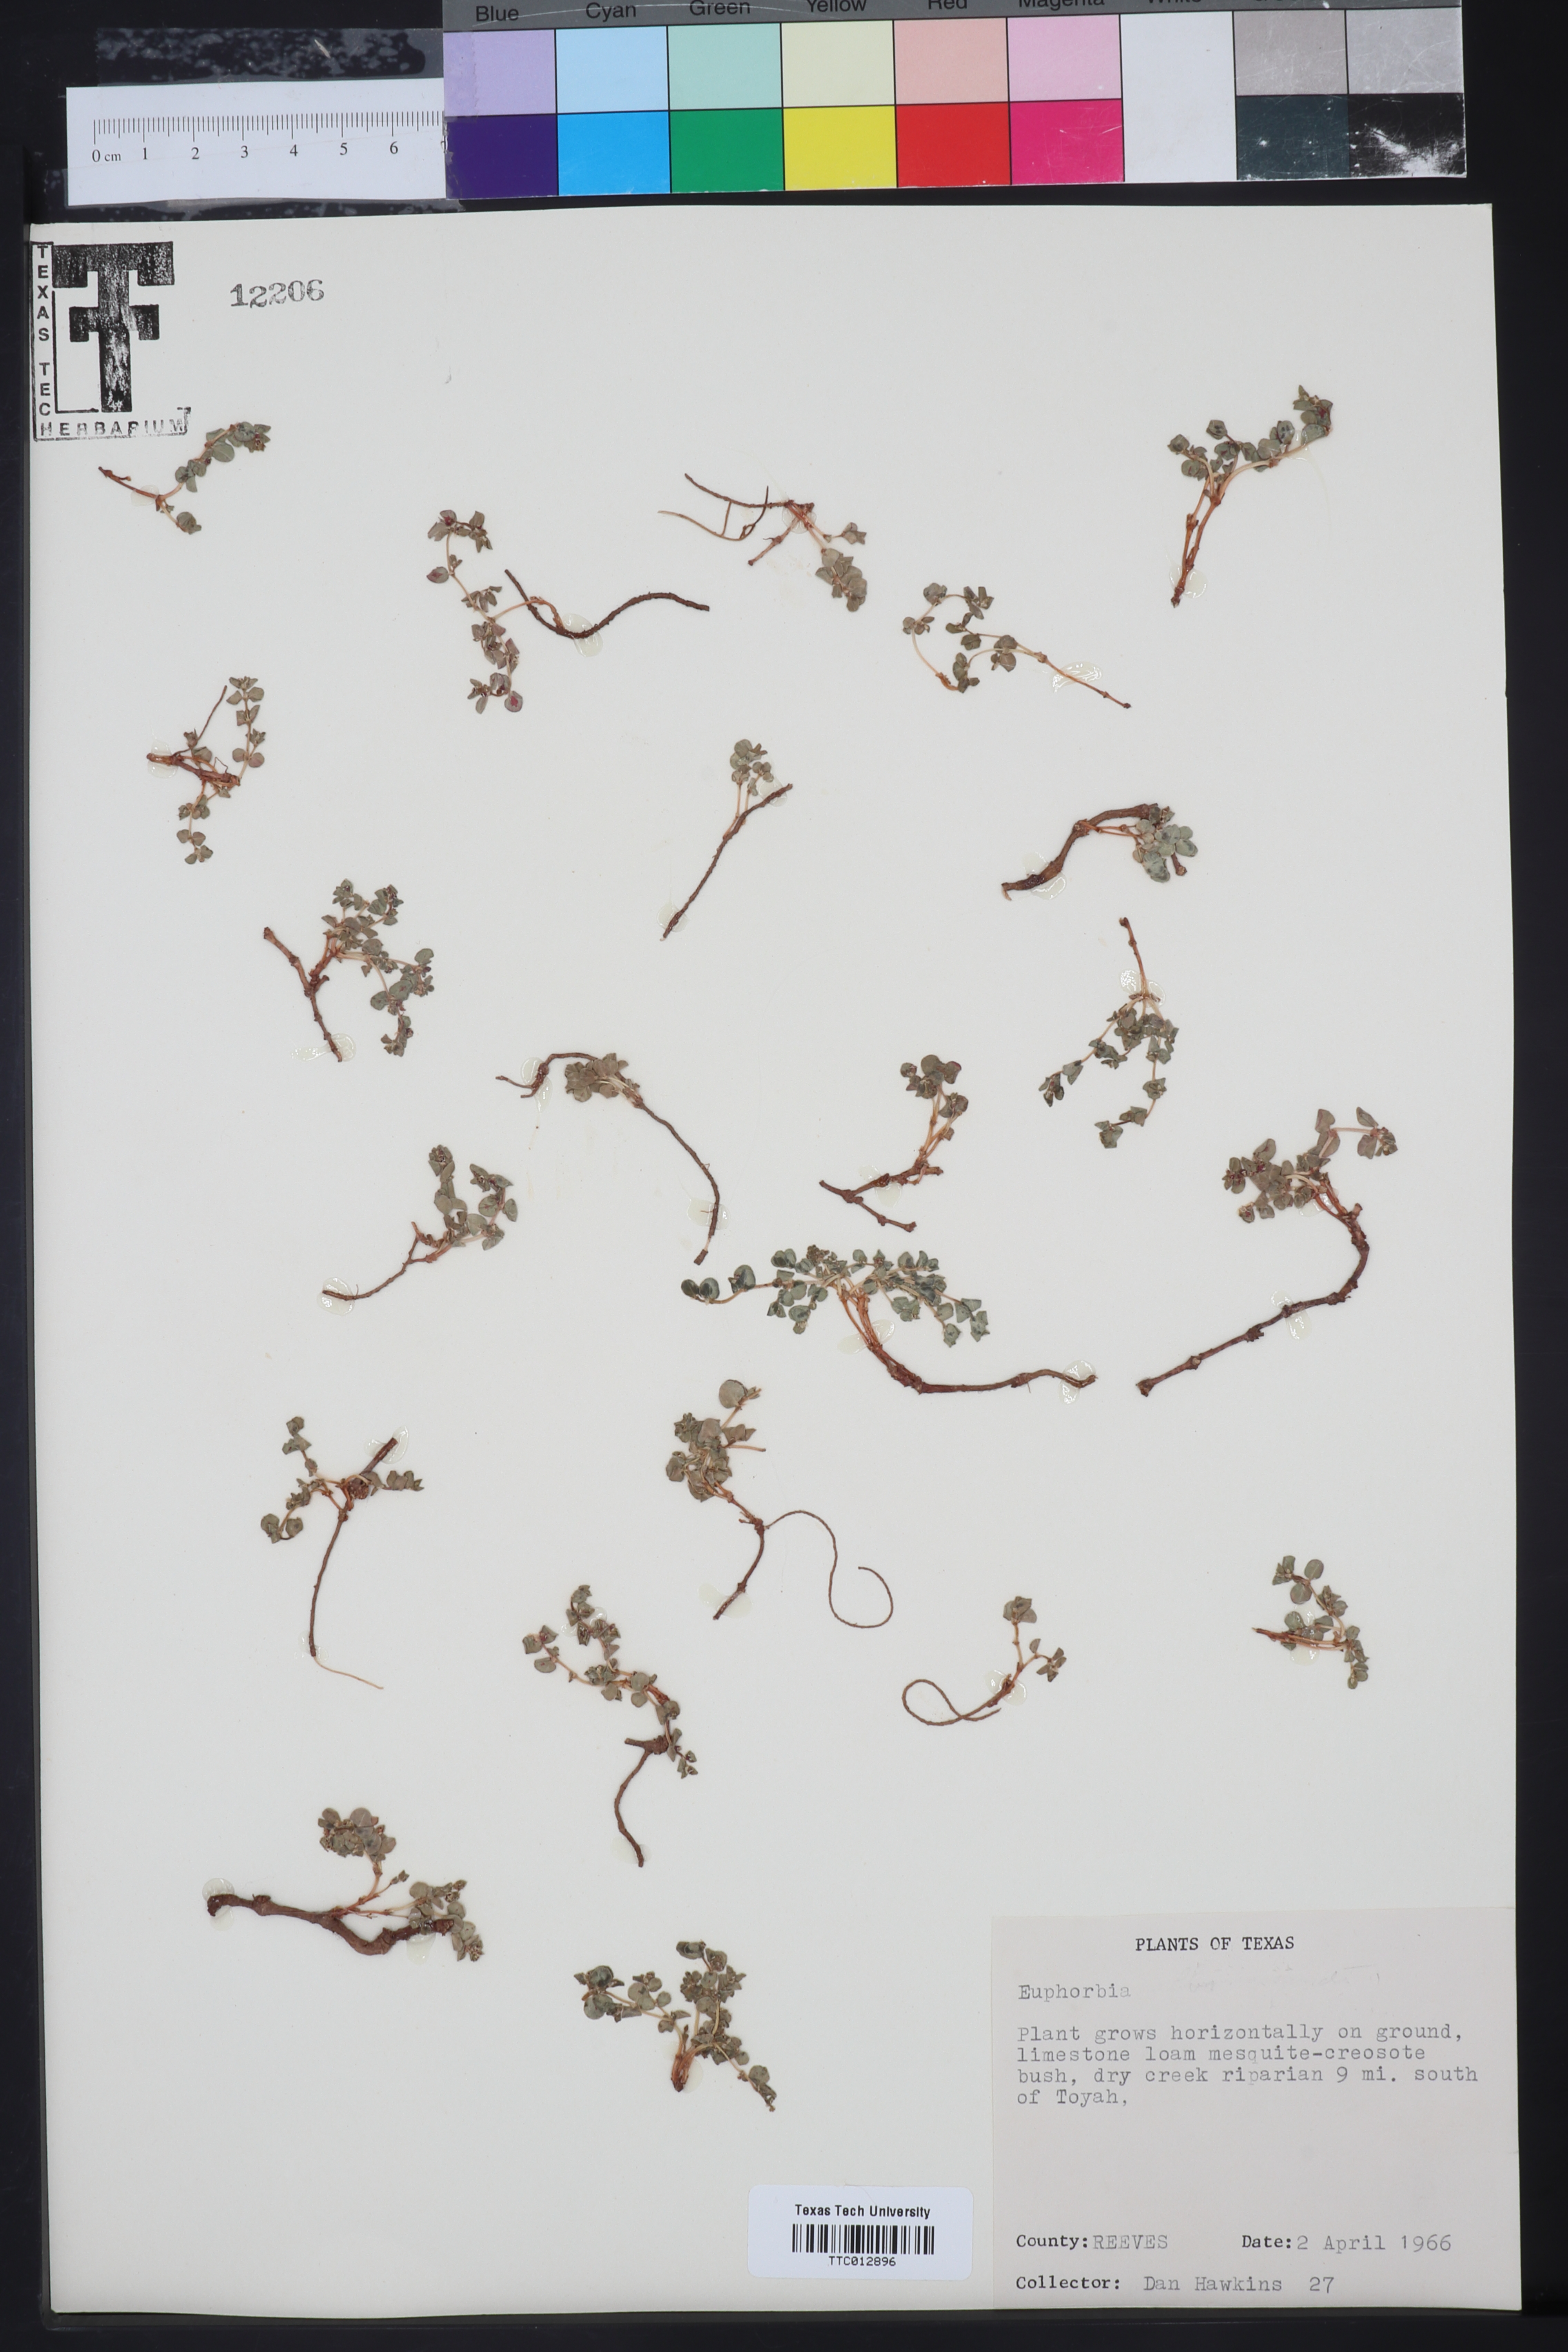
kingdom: Plantae
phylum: Tracheophyta
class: Magnoliopsida
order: Malpighiales
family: Euphorbiaceae
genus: Euphorbia
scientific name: Euphorbia
